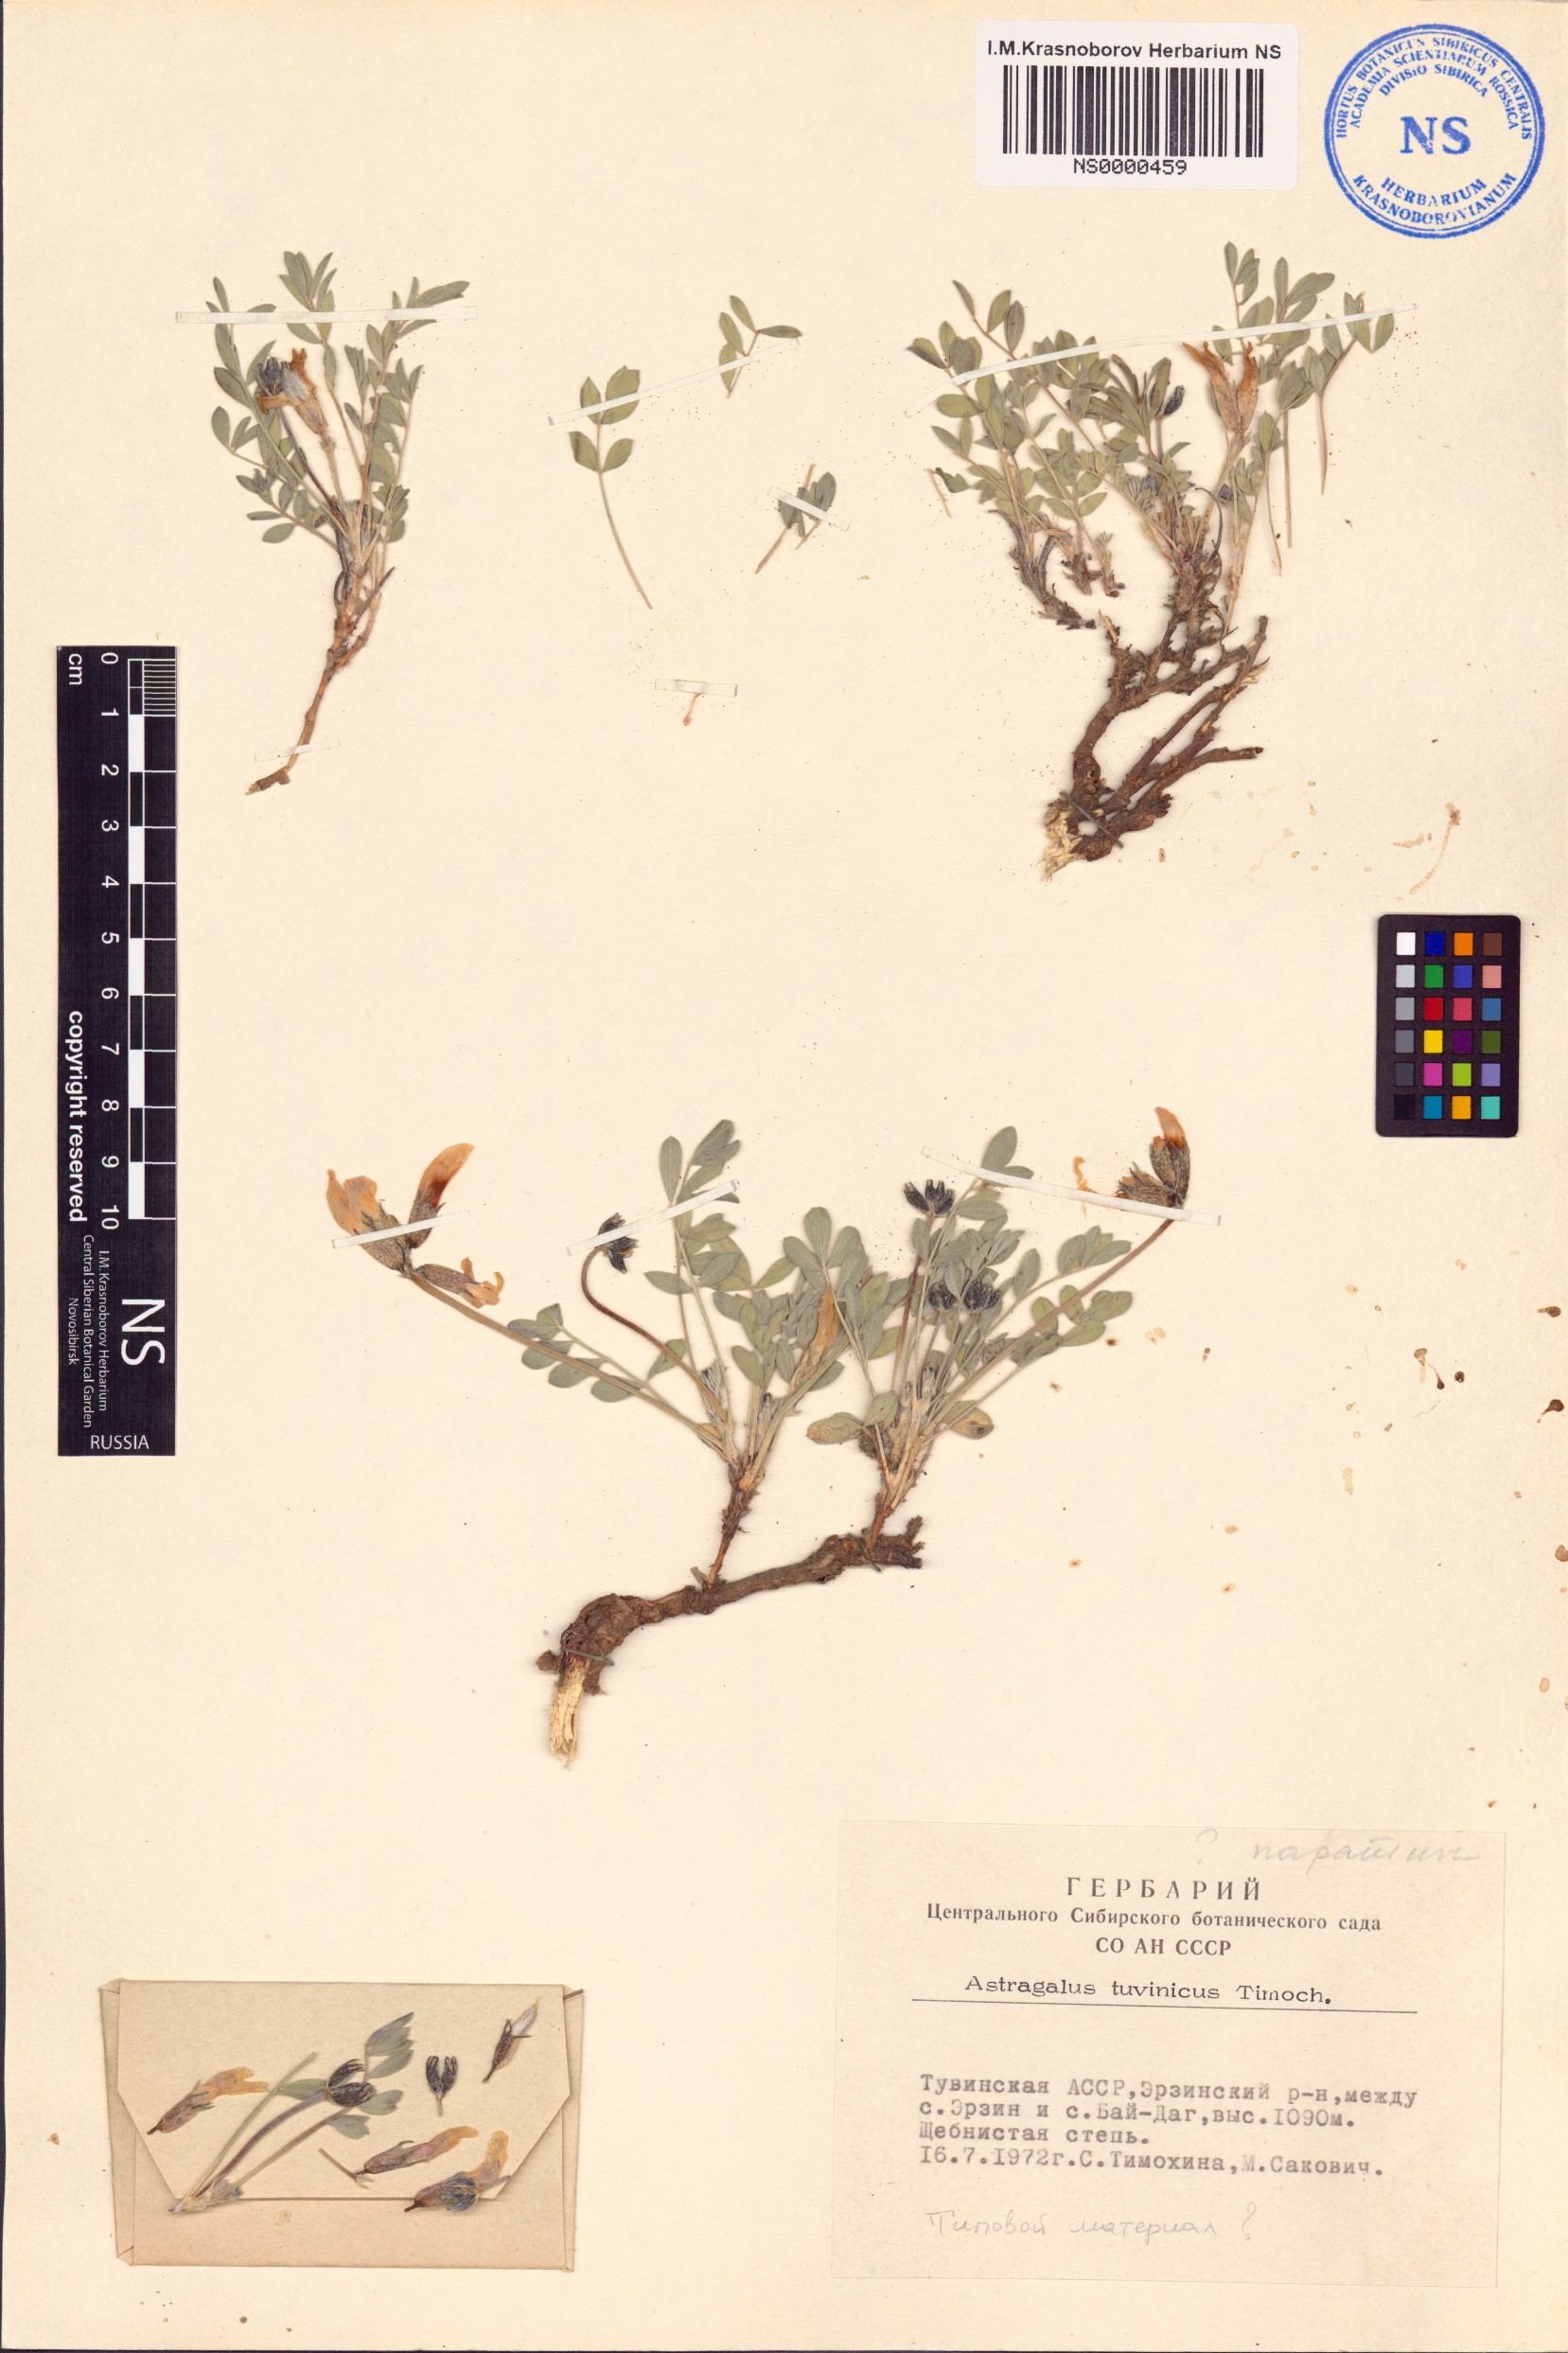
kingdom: Plantae
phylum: Tracheophyta
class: Magnoliopsida
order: Fabales
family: Fabaceae
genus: Astragalus
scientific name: Astragalus gregorii
